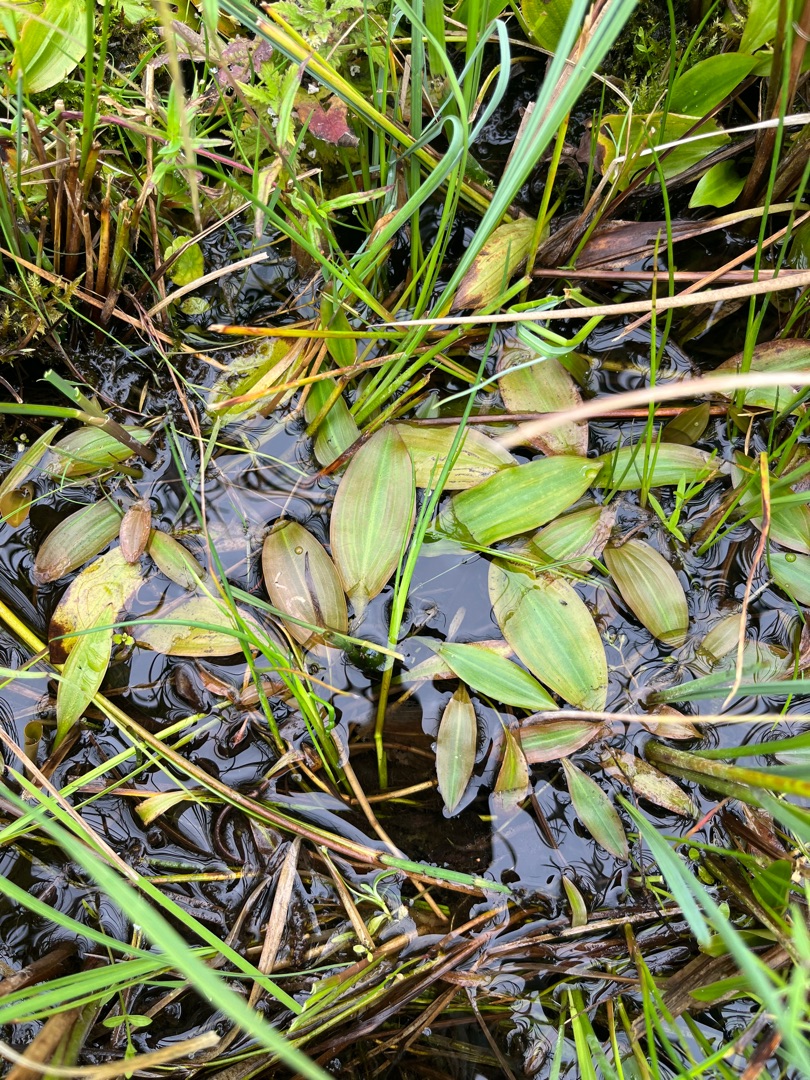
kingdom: Plantae
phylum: Tracheophyta
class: Liliopsida
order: Alismatales
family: Potamogetonaceae
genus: Potamogeton
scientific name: Potamogeton polygonifolius
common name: Aflangbladet vandaks
